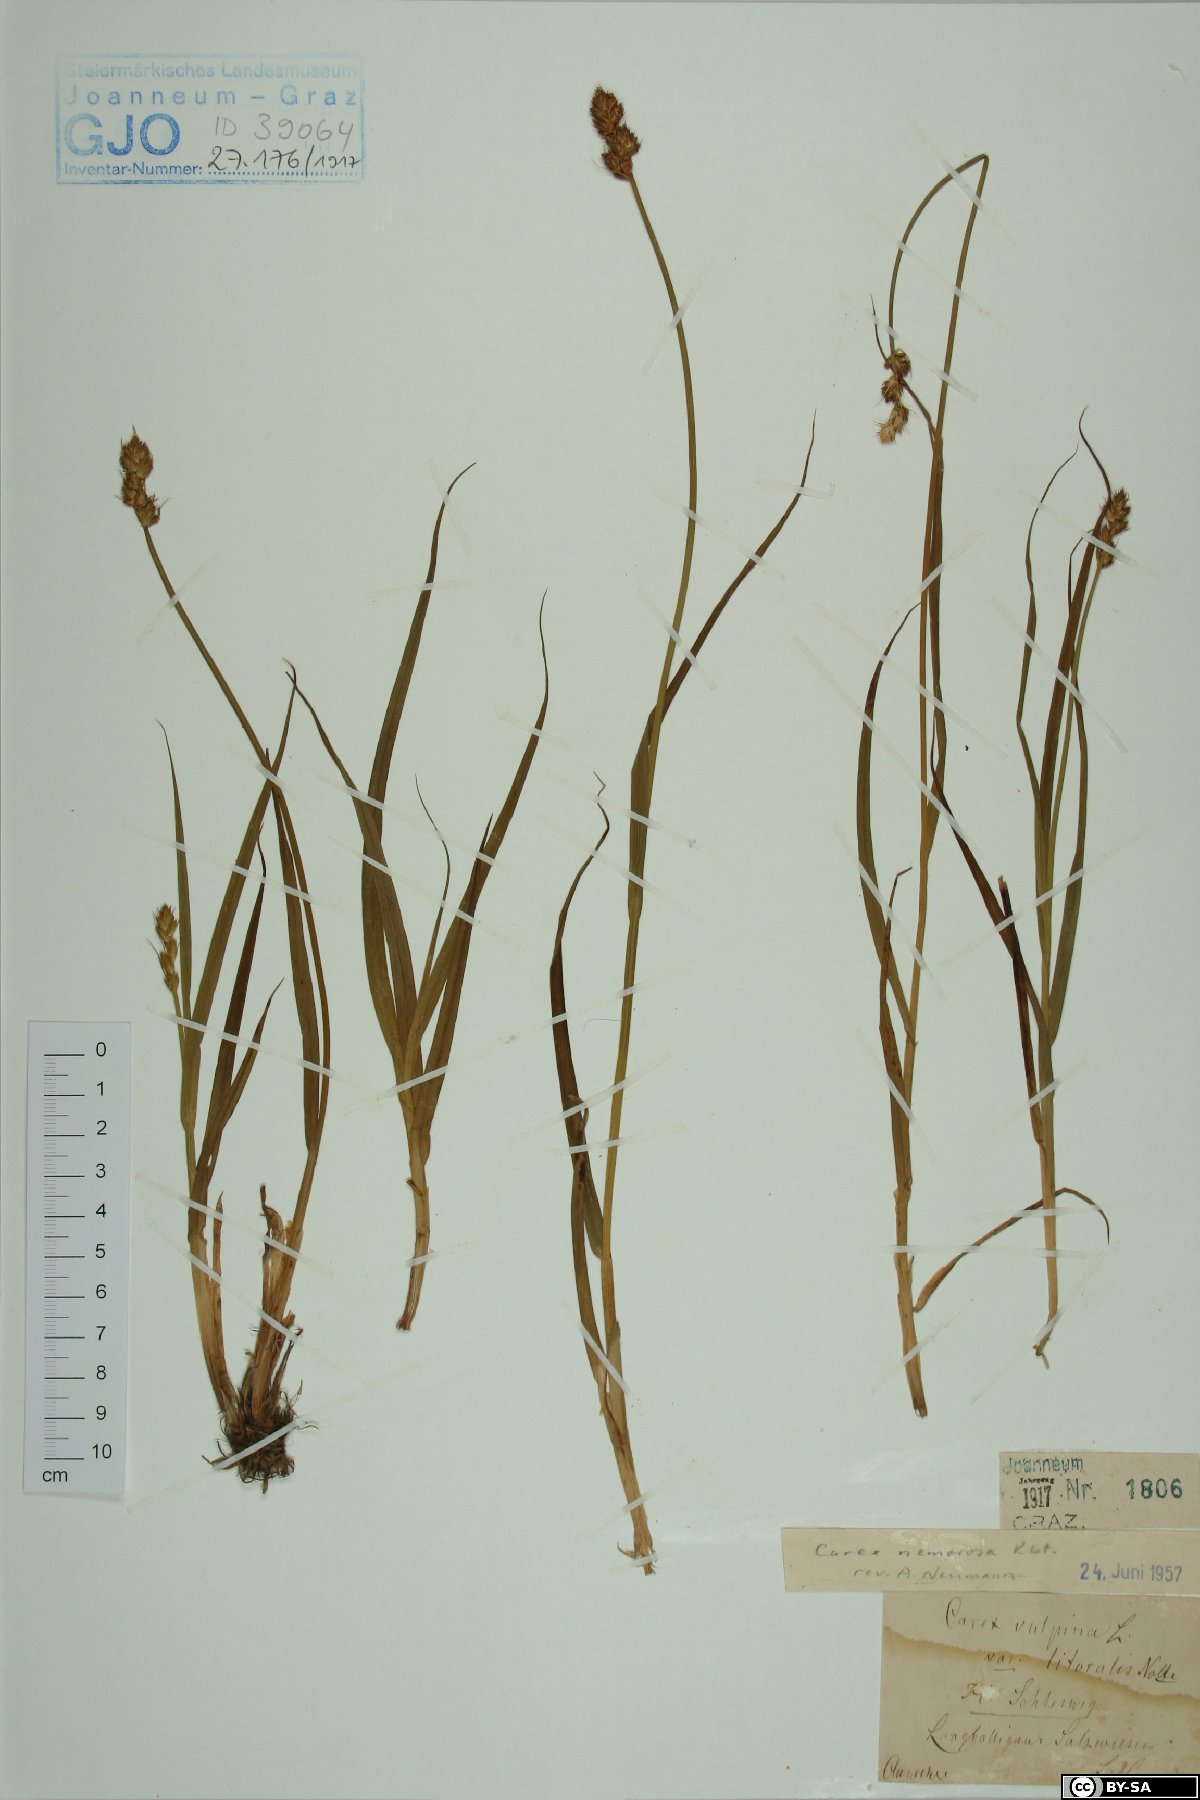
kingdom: Plantae
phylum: Tracheophyta
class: Liliopsida
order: Poales
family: Cyperaceae
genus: Carex
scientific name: Carex otrubae
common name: False fox-sedge
